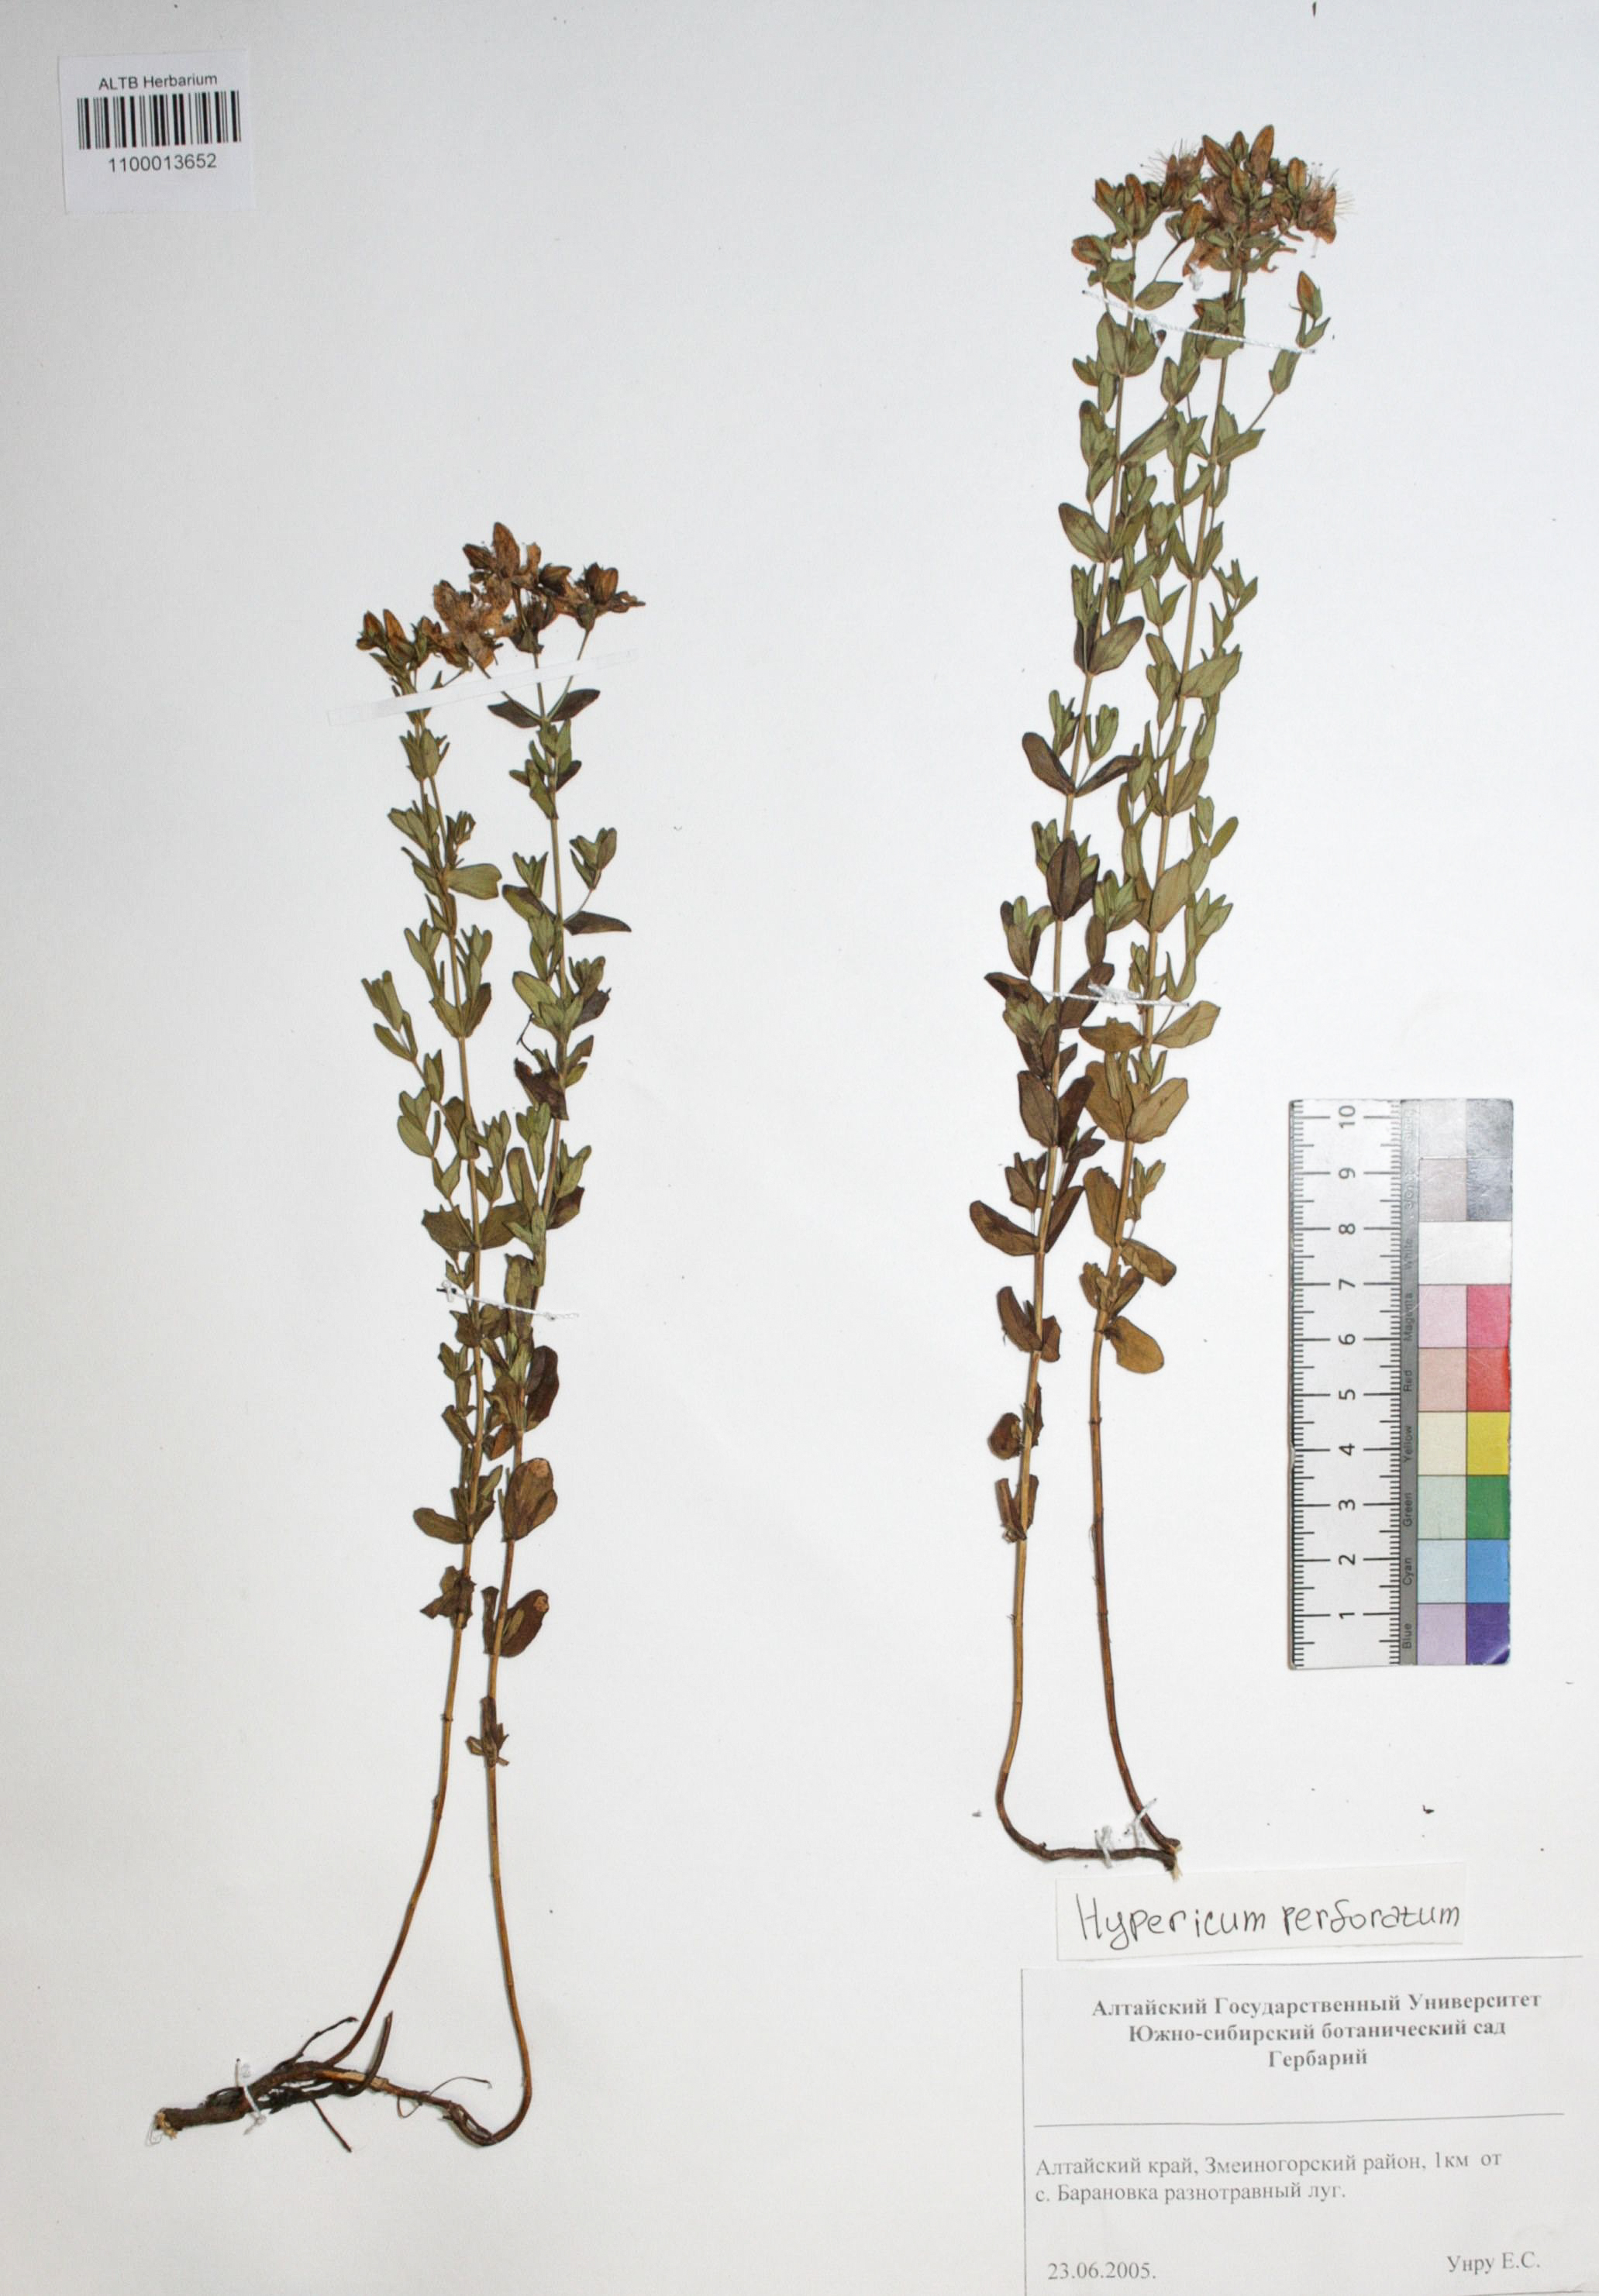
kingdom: Plantae
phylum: Tracheophyta
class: Magnoliopsida
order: Malpighiales
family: Hypericaceae
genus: Hypericum
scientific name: Hypericum perforatum
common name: Common st. johnswort
